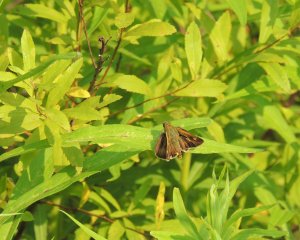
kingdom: Animalia
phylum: Arthropoda
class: Insecta
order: Lepidoptera
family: Hesperiidae
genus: Polites
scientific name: Polites themistocles
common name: Tawny-edged Skipper
